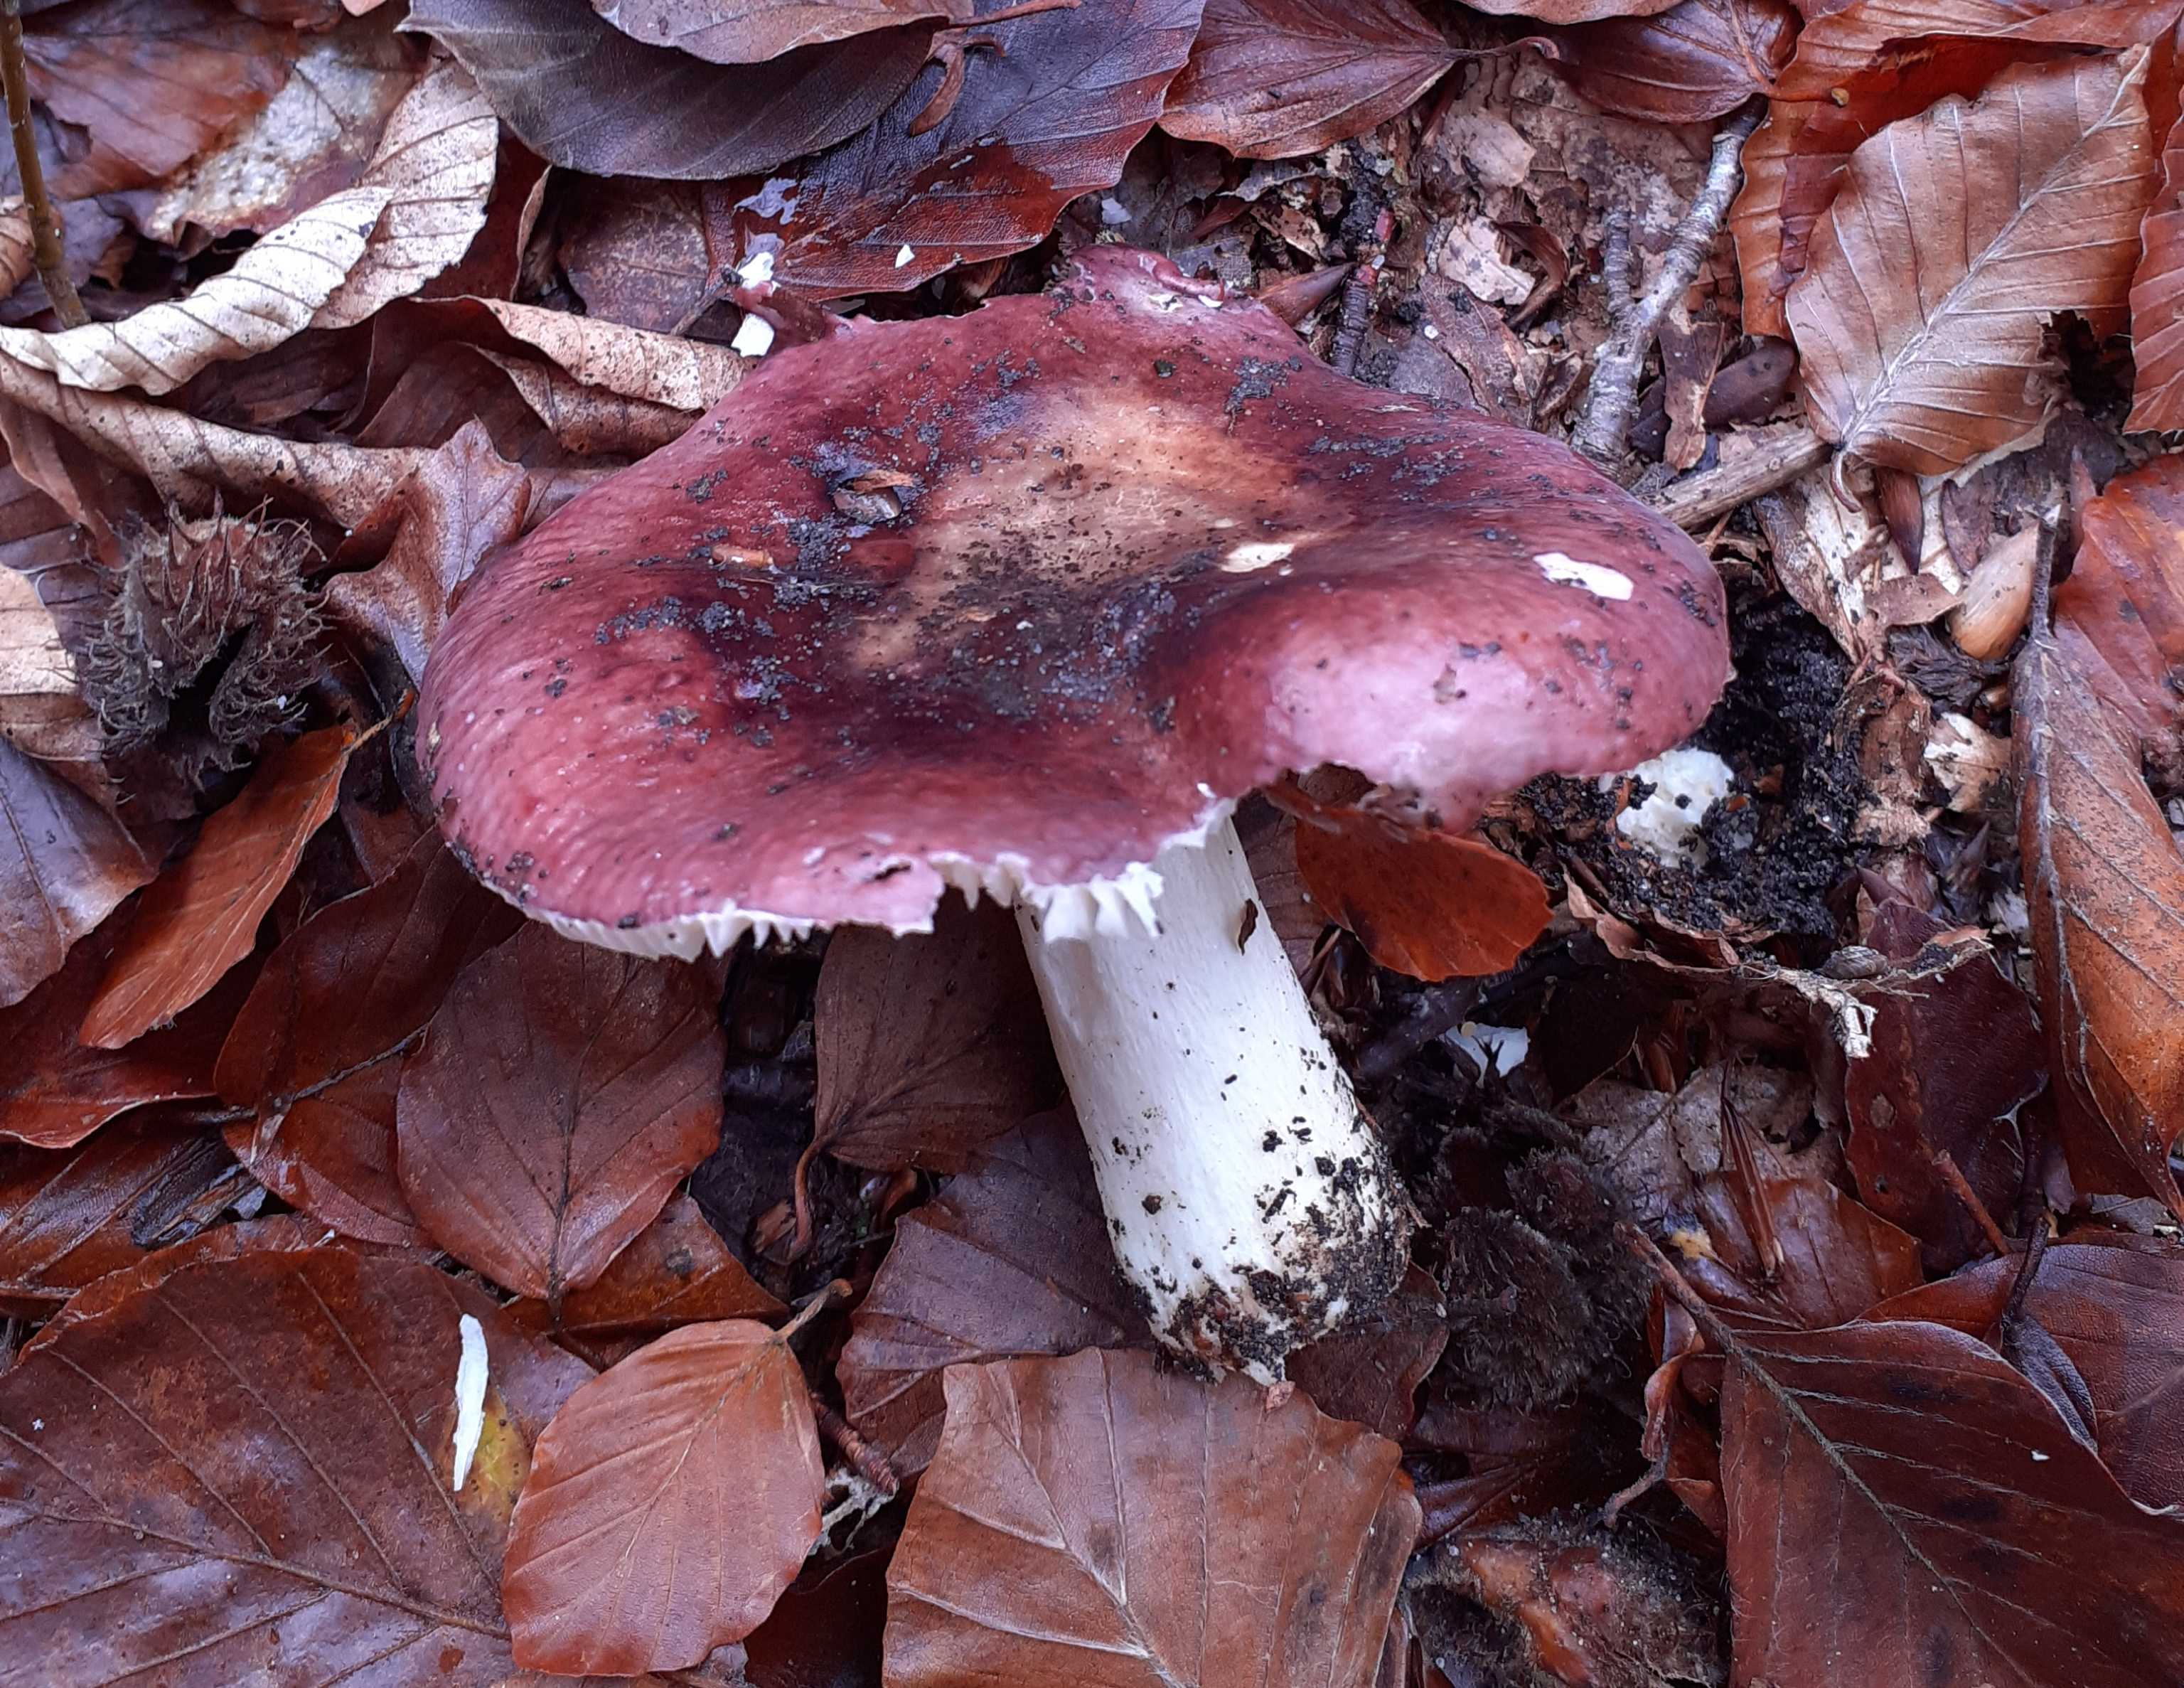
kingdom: Fungi
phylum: Basidiomycota
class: Agaricomycetes
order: Russulales
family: Russulaceae
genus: Russula
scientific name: Russula atropurpurea
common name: purpurbroget skørhat
